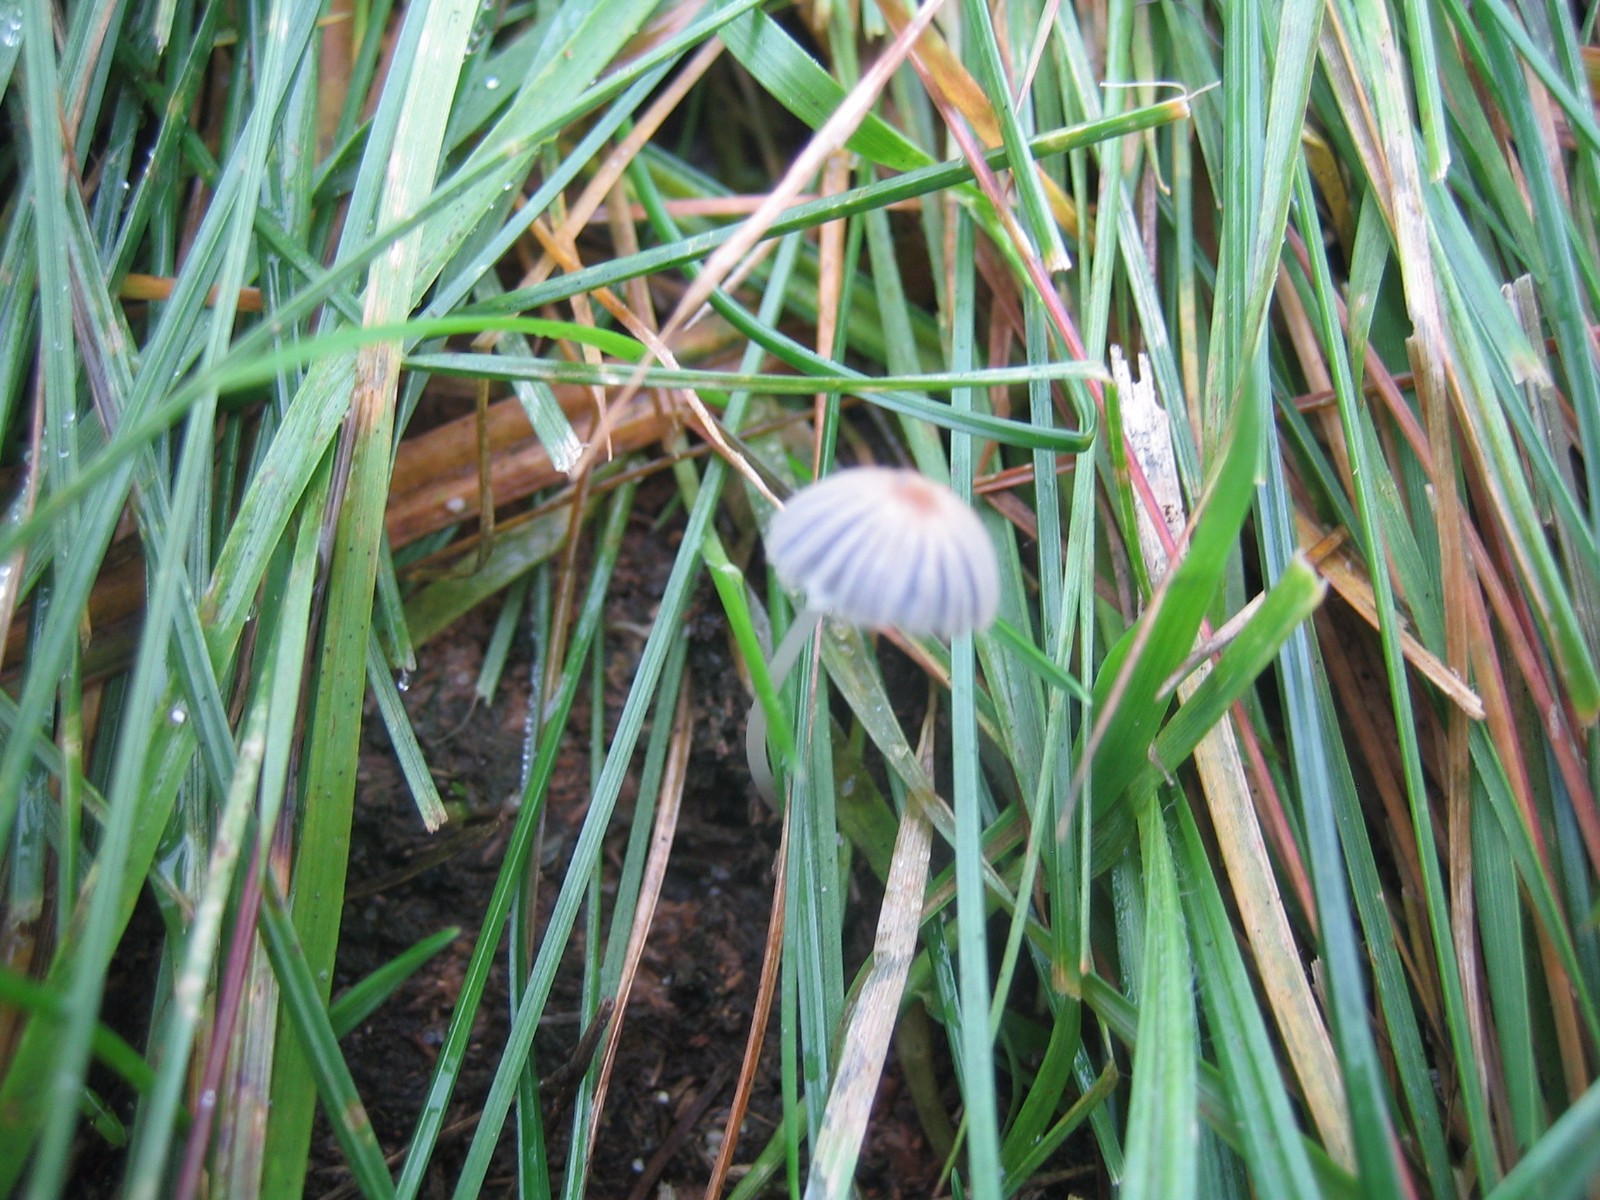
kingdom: Fungi
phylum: Basidiomycota
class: Agaricomycetes
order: Agaricales
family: Psathyrellaceae
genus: Coprinellus
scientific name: Coprinellus
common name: blækhat
